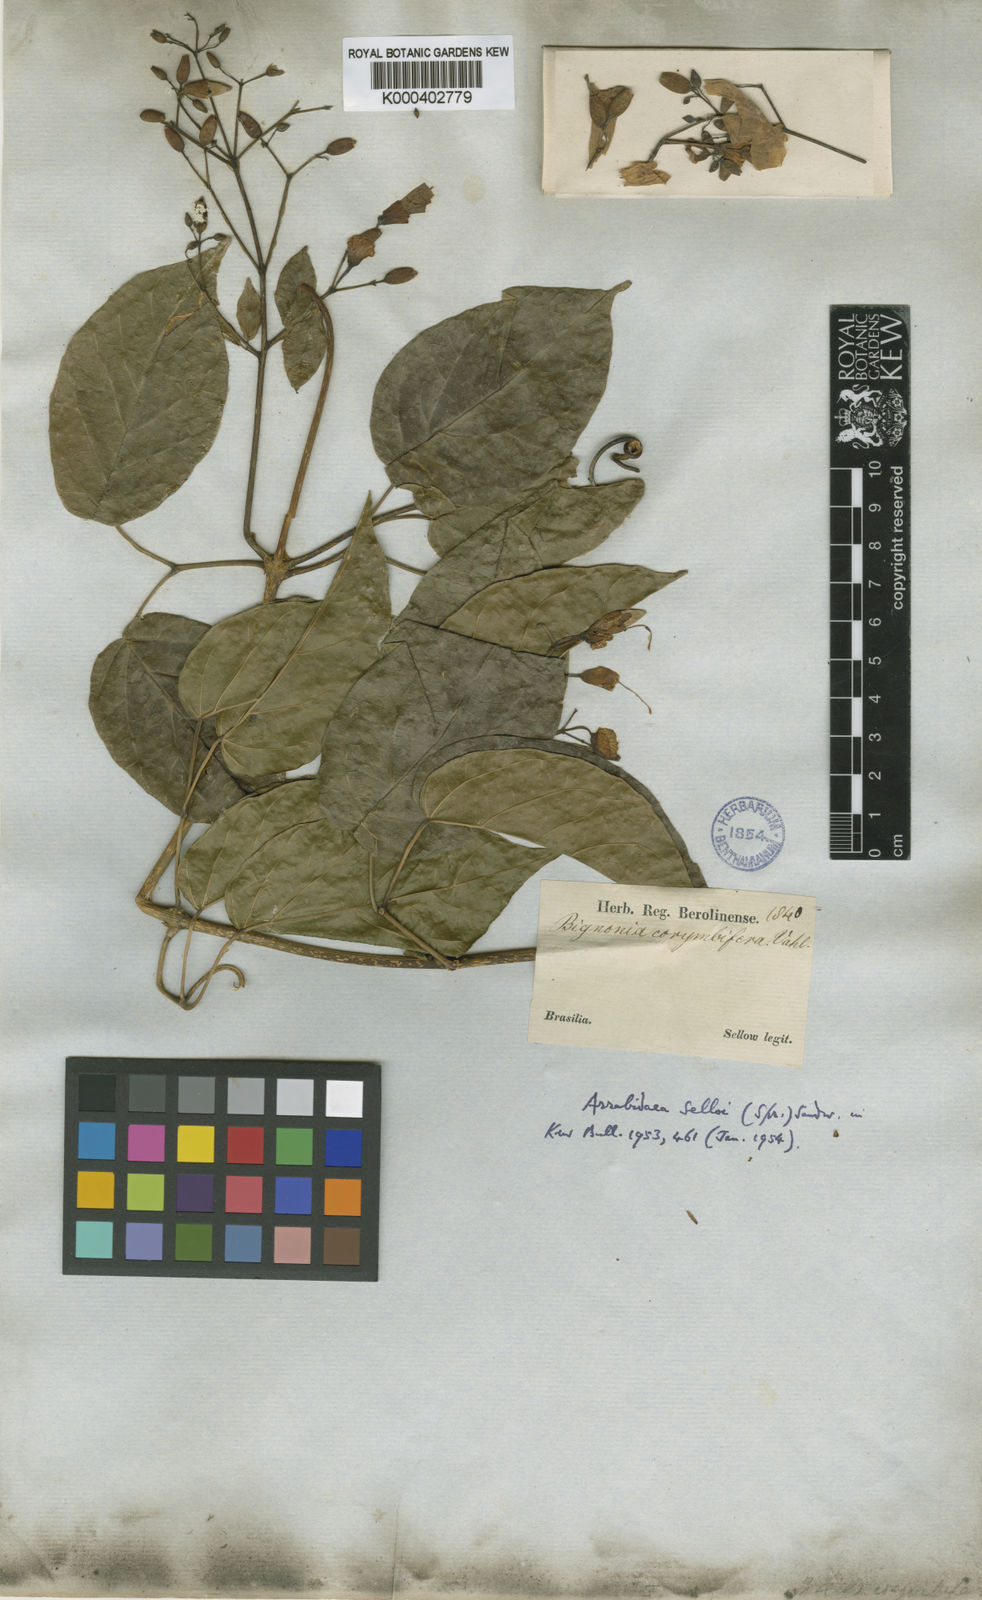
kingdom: Plantae
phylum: Tracheophyta
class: Magnoliopsida
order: Lamiales
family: Bignoniaceae
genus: Tanaecium
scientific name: Tanaecium selloi
